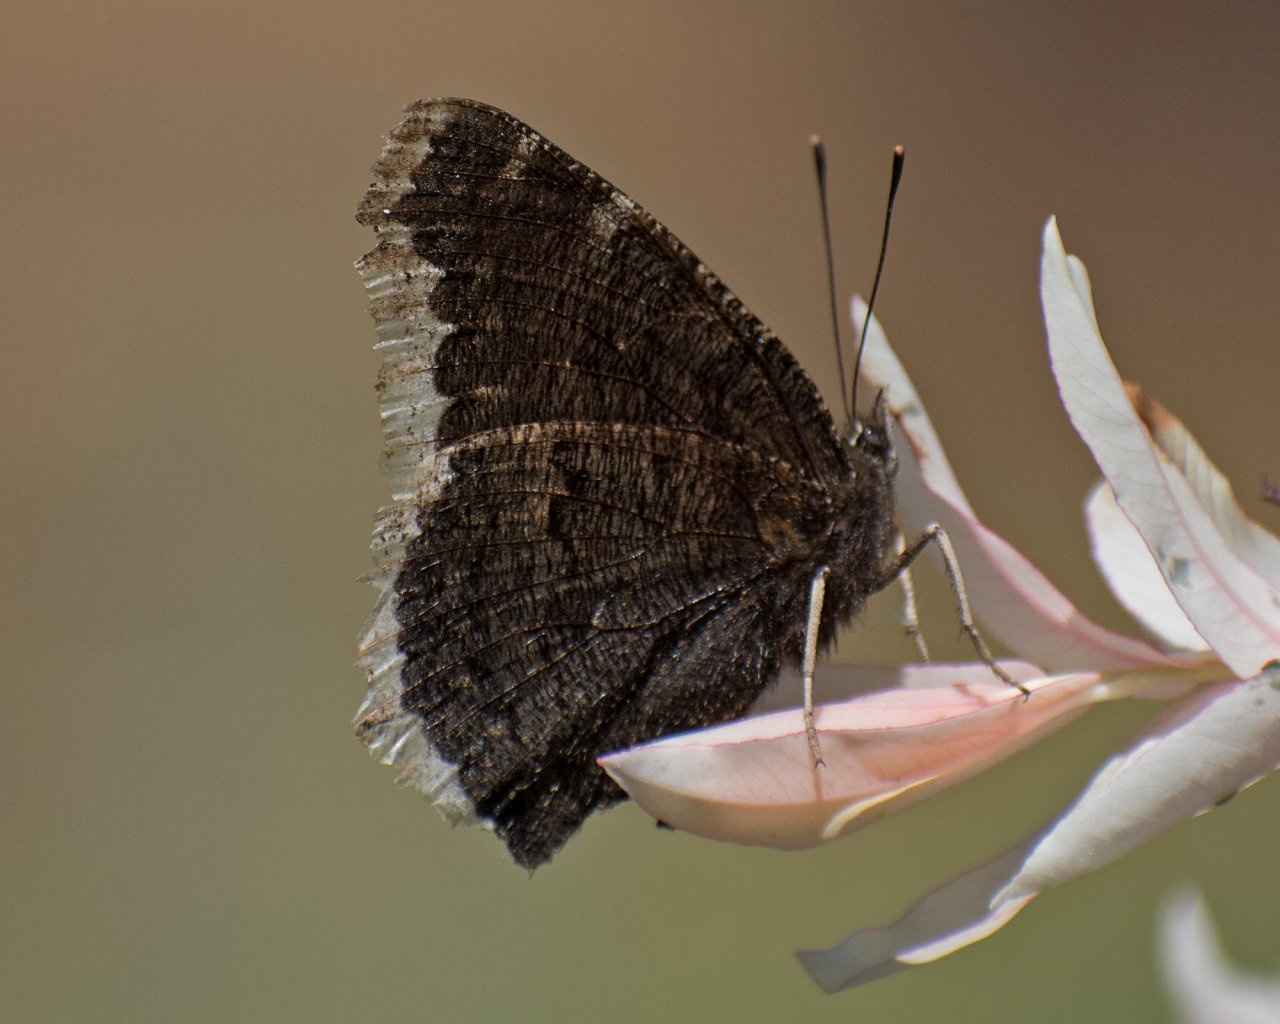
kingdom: Animalia
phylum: Arthropoda
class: Insecta
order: Lepidoptera
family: Nymphalidae
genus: Nymphalis
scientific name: Nymphalis antiopa
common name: Mourning Cloak
